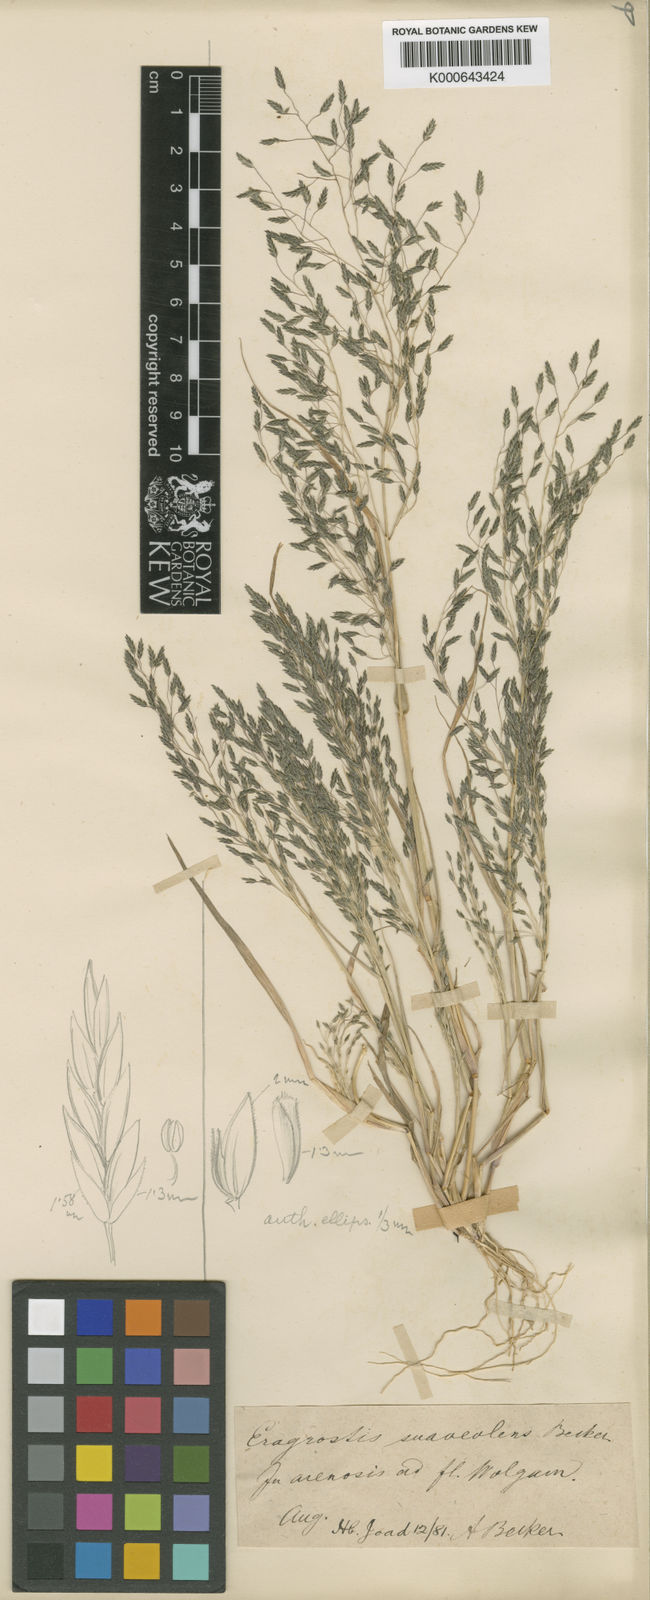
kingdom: Plantae
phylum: Tracheophyta
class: Liliopsida
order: Poales
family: Poaceae
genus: Eragrostis
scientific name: Eragrostis minor
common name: Small love-grass
